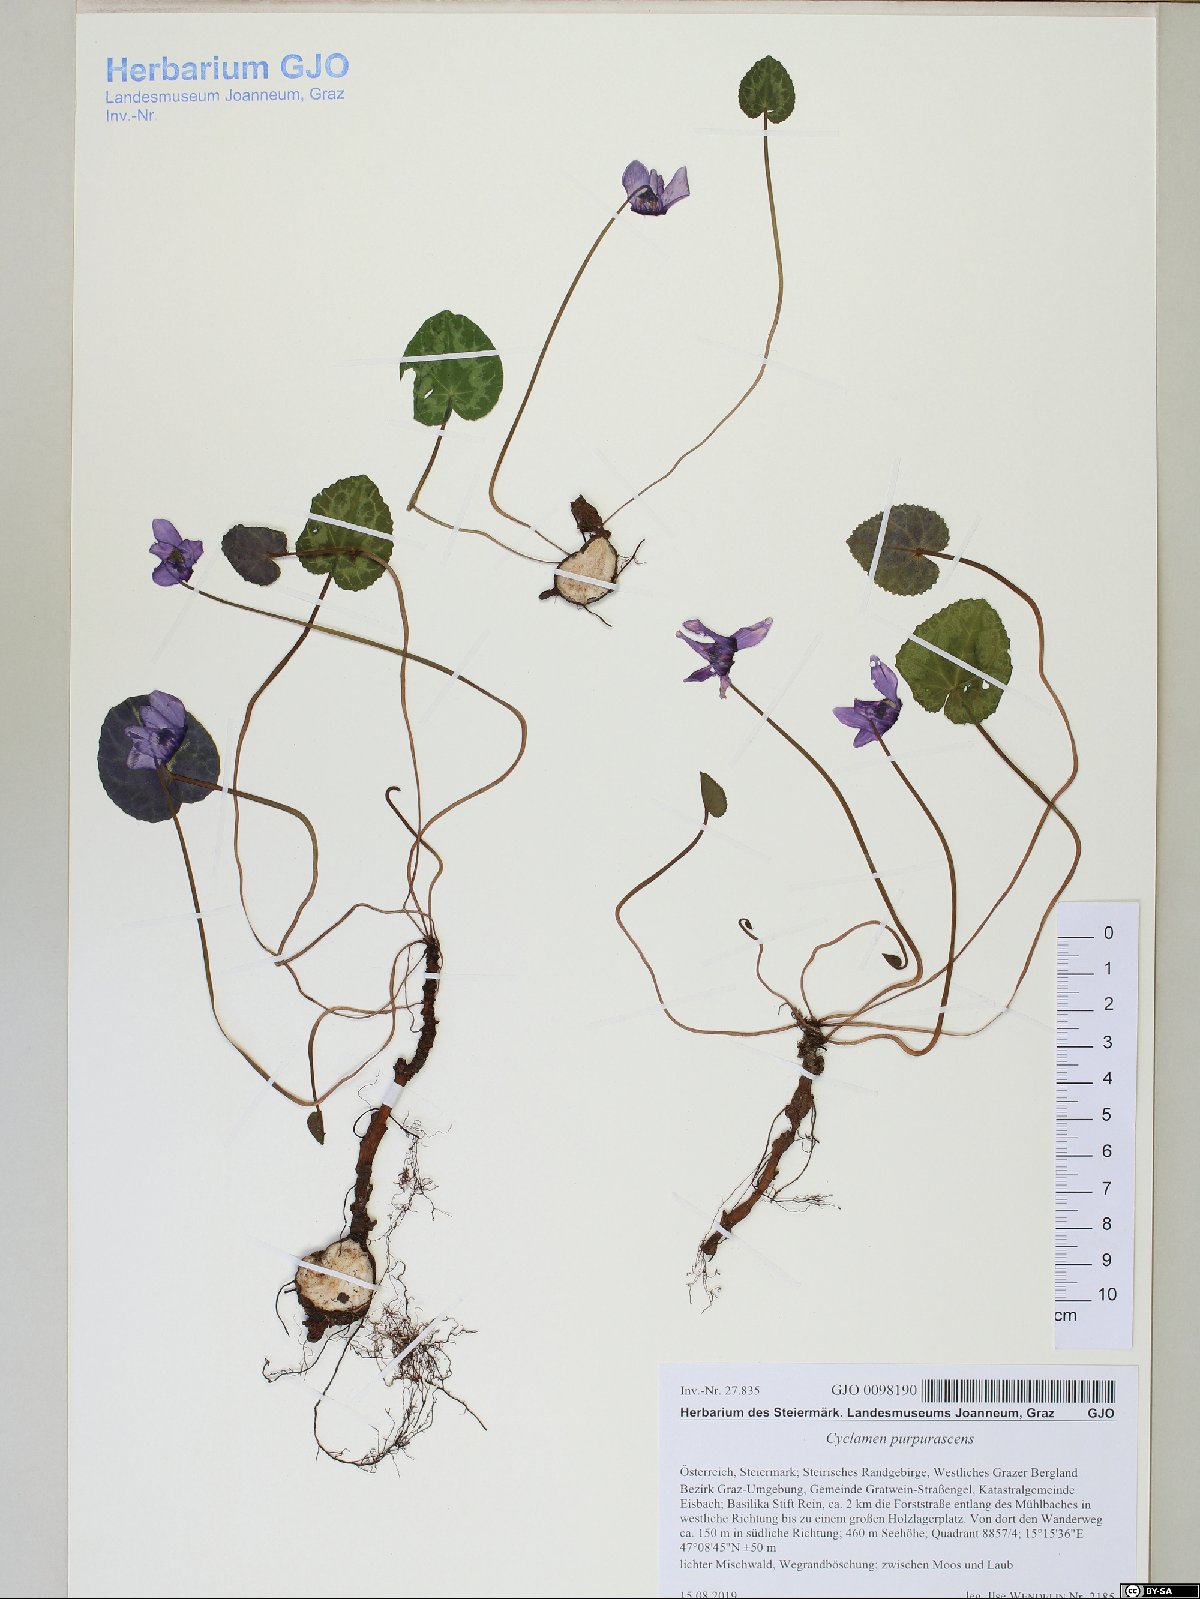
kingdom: Plantae
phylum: Tracheophyta
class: Magnoliopsida
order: Ericales
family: Primulaceae
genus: Cyclamen
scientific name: Cyclamen purpurascens
